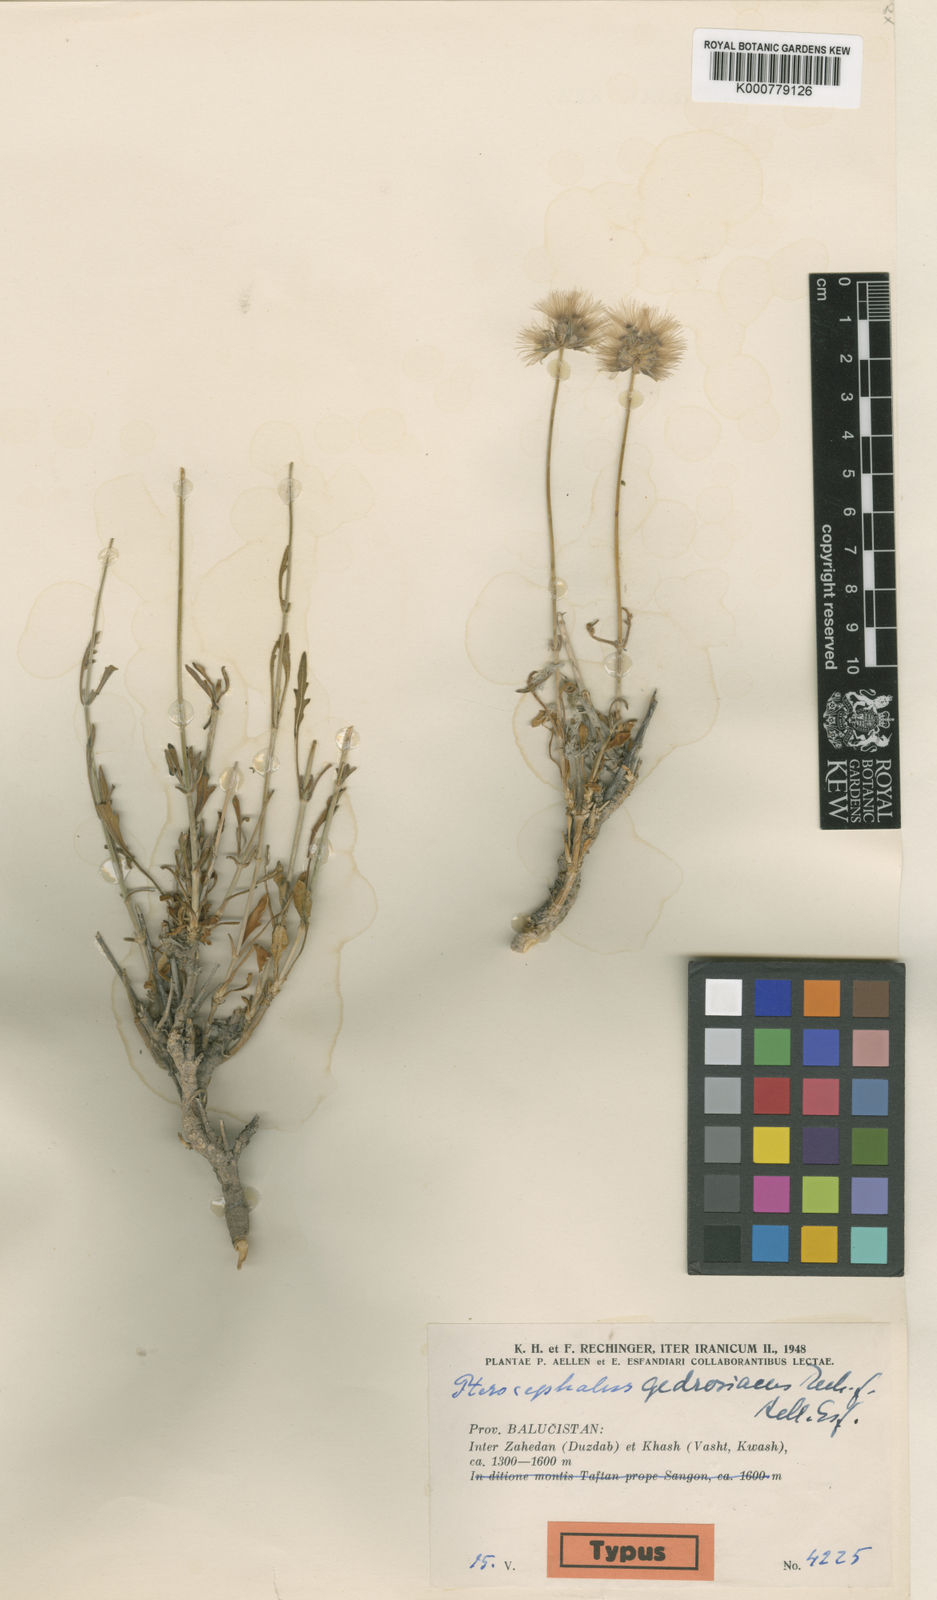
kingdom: Plantae
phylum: Tracheophyta
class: Magnoliopsida
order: Dipsacales
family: Caprifoliaceae
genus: Pterocephalus
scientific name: Pterocephalus gedrosiacus
